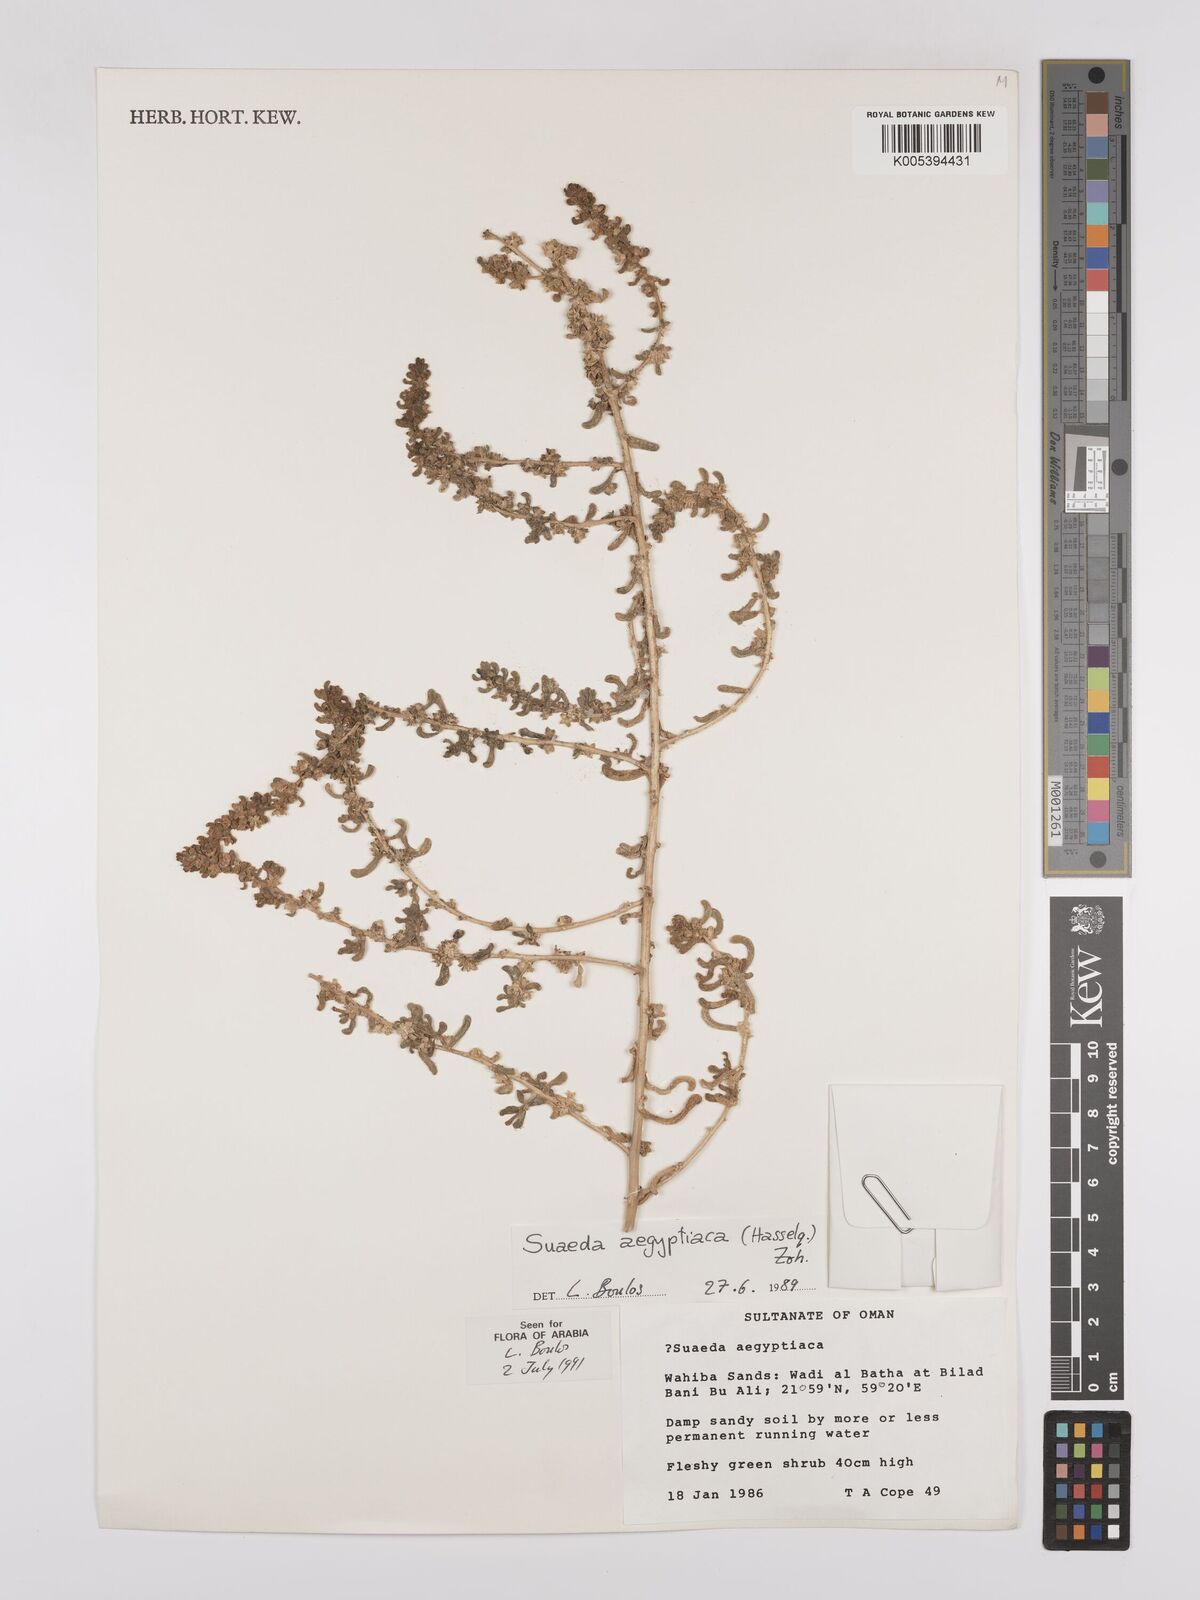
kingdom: Plantae
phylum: Tracheophyta
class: Magnoliopsida
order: Caryophyllales
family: Amaranthaceae
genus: Suaeda
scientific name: Suaeda aegyptiaca
